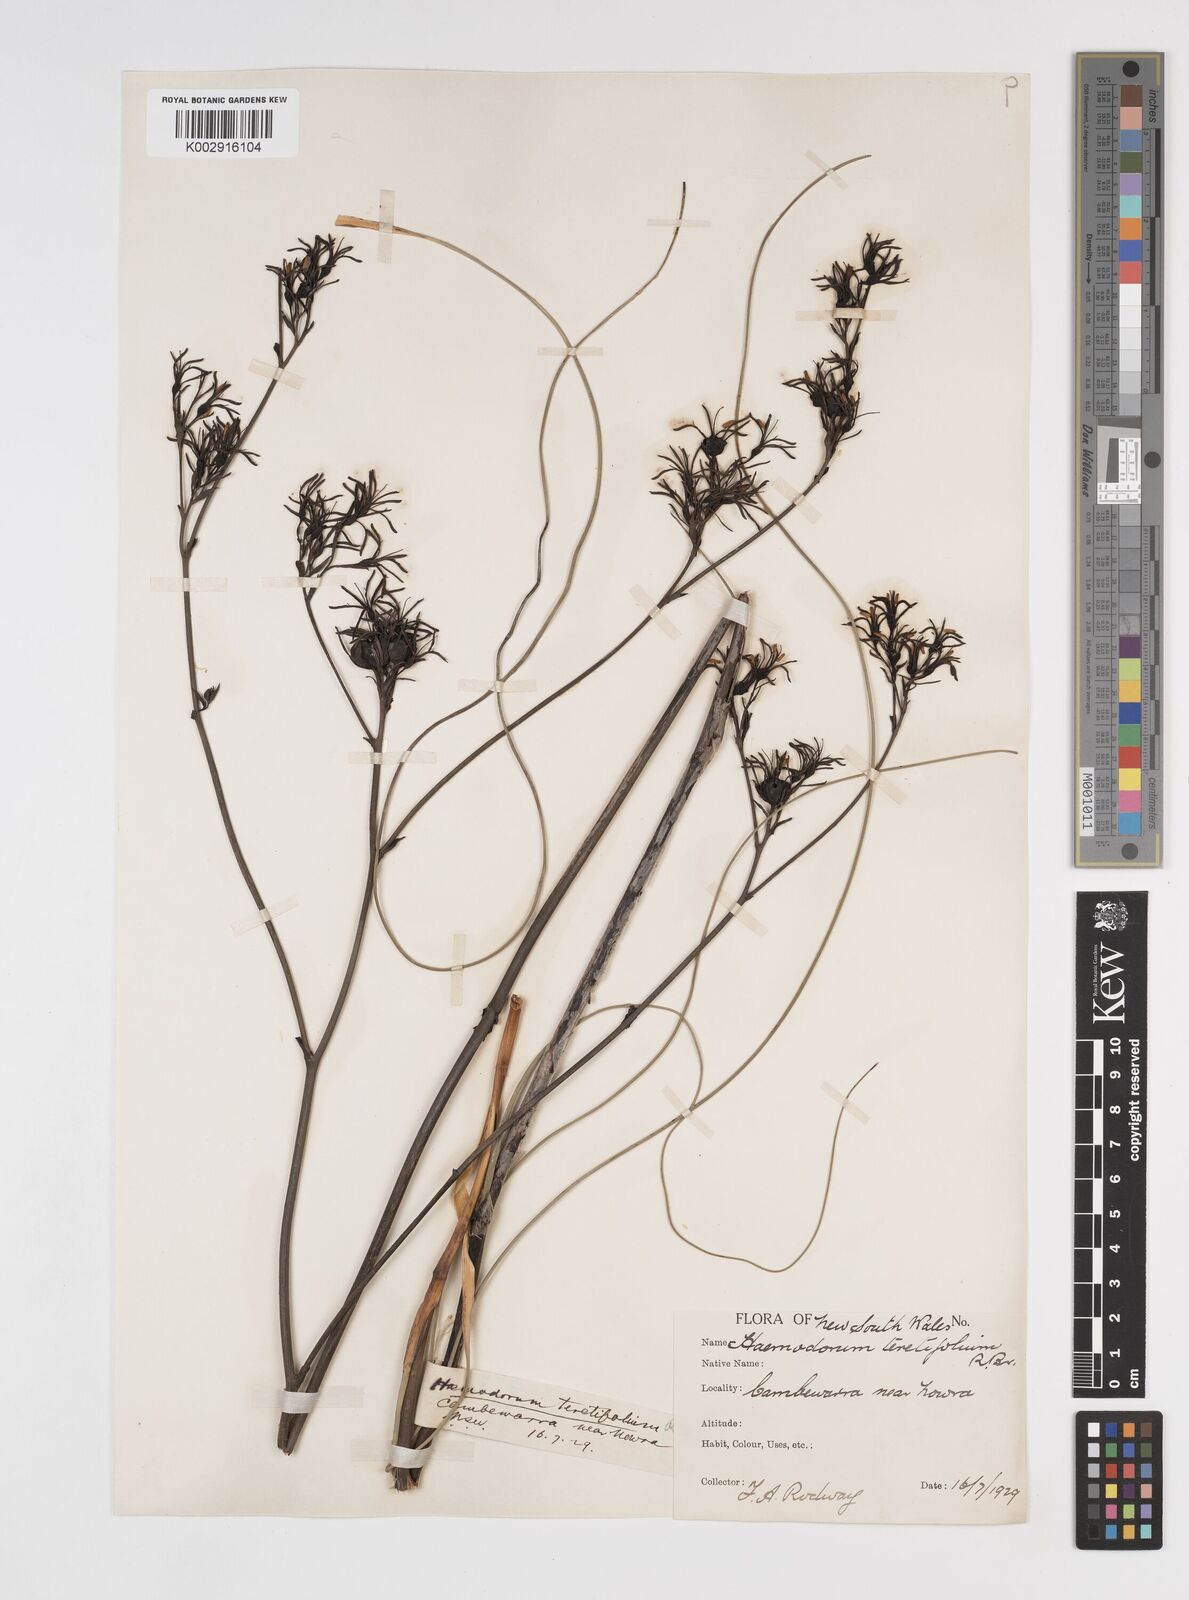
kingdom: Plantae
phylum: Tracheophyta
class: Liliopsida
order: Commelinales
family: Haemodoraceae
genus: Haemodorum
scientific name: Haemodorum corymbosum
